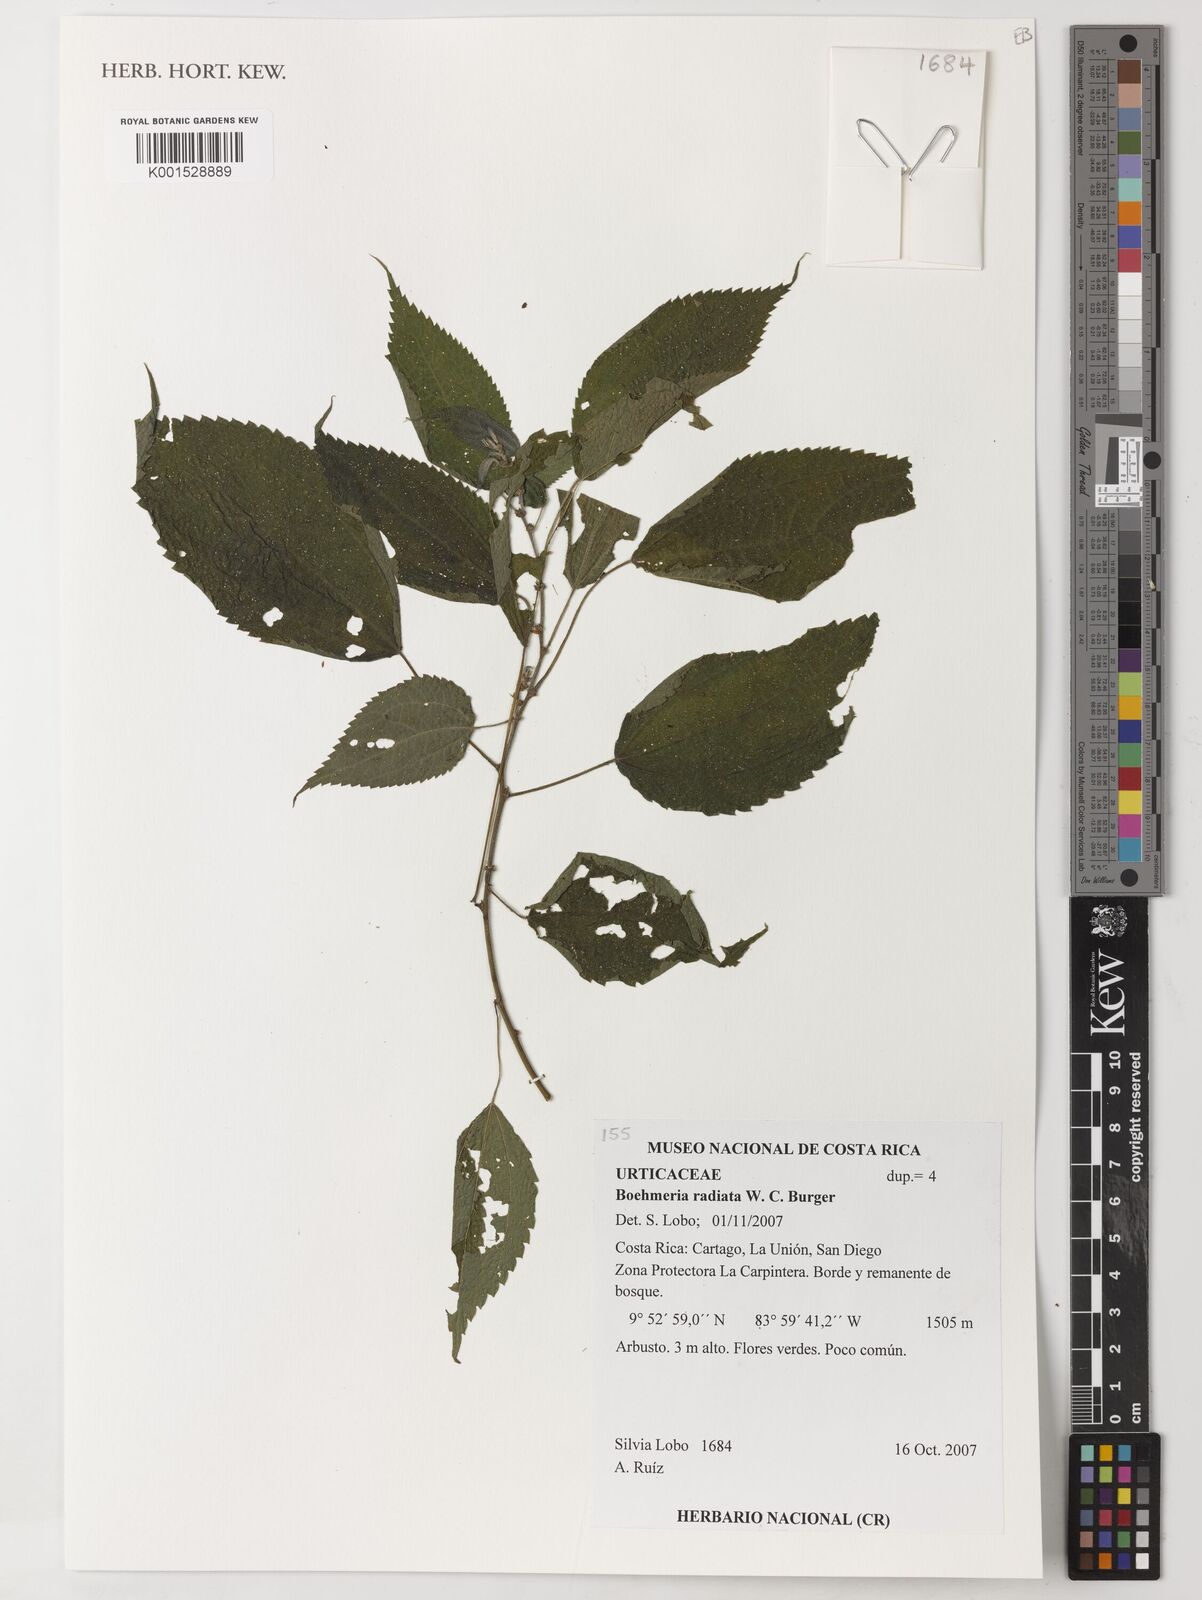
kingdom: Plantae
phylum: Tracheophyta
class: Magnoliopsida
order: Rosales
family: Urticaceae
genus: Boehmeria
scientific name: Boehmeria radiata
